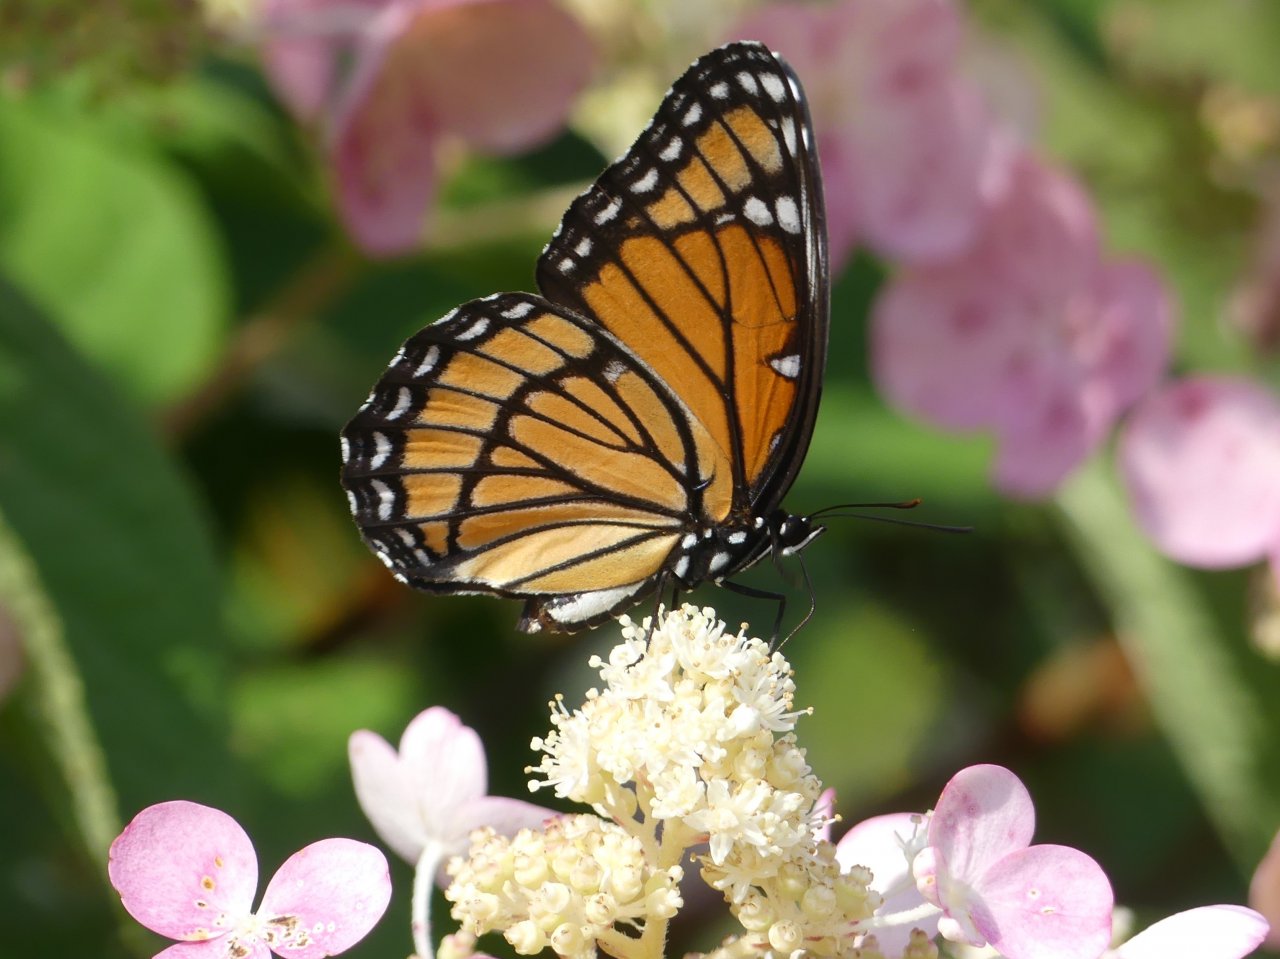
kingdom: Animalia
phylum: Arthropoda
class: Insecta
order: Lepidoptera
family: Nymphalidae
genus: Limenitis
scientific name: Limenitis archippus
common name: Viceroy
